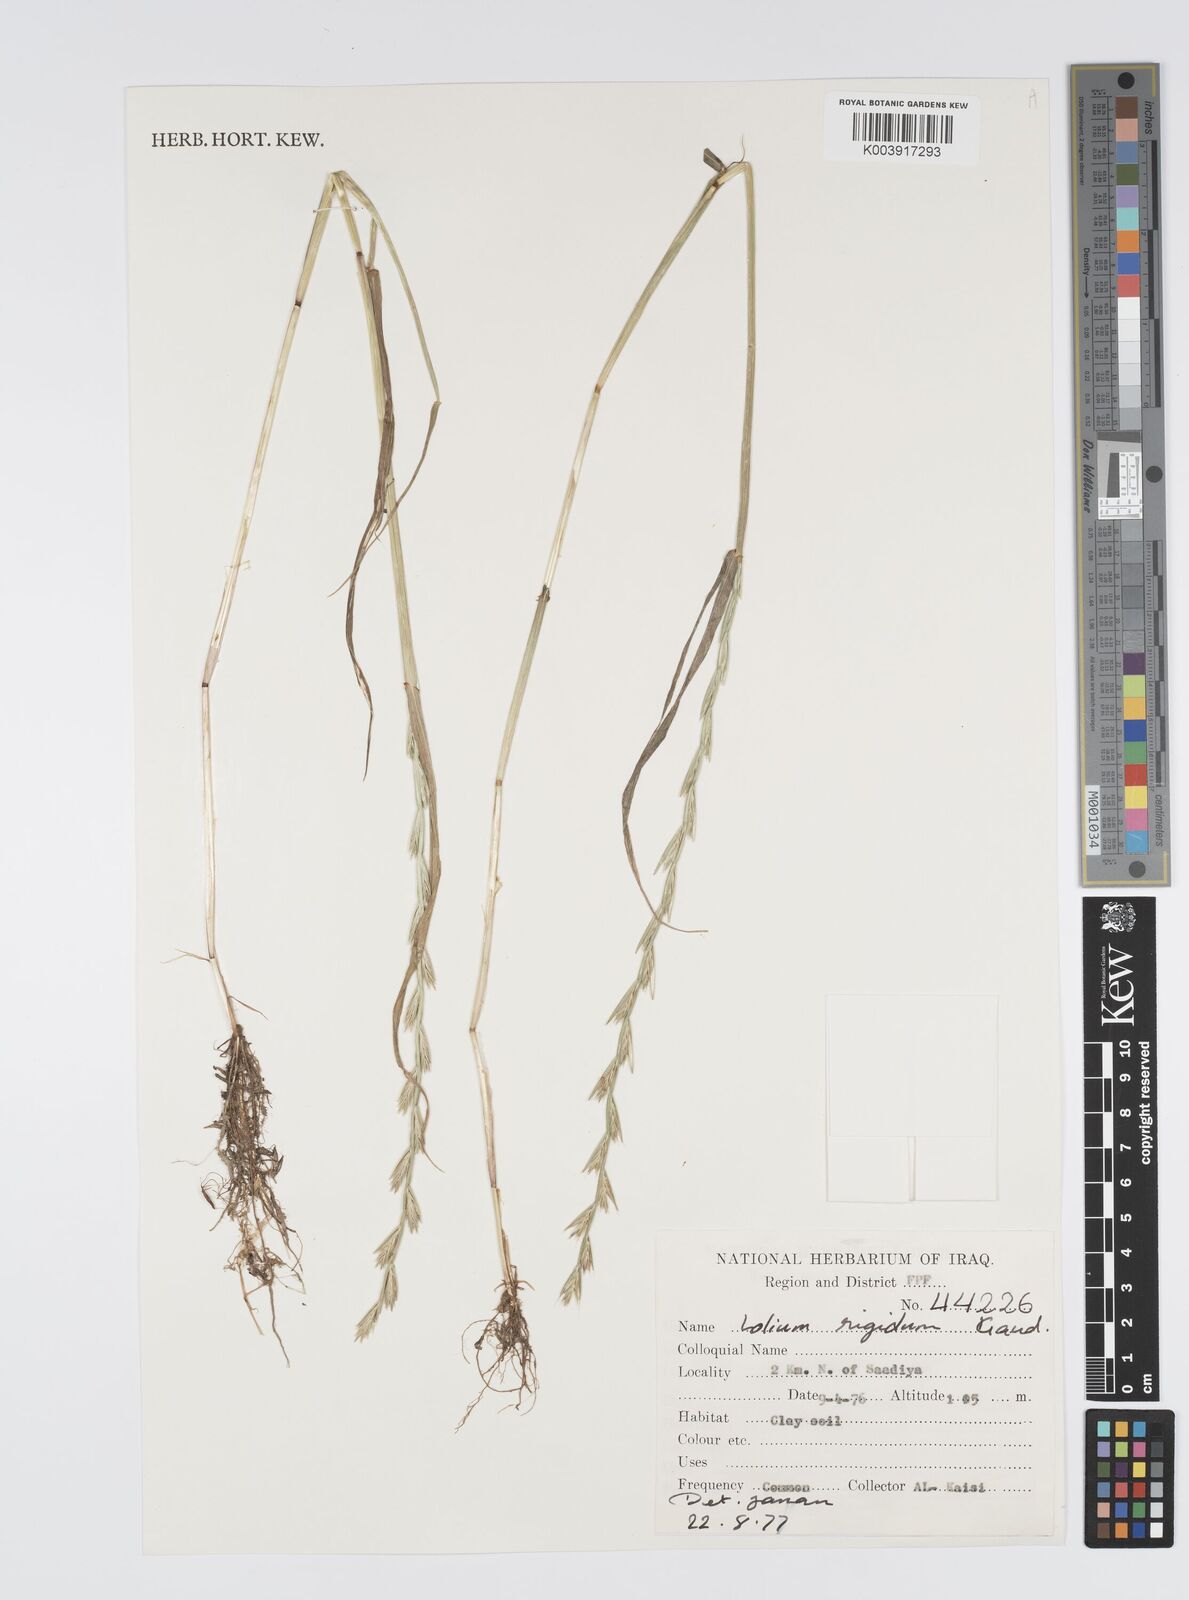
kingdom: Plantae
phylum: Tracheophyta
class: Liliopsida
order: Poales
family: Poaceae
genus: Lolium
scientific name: Lolium rigidum
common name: Wimmera ryegrass
